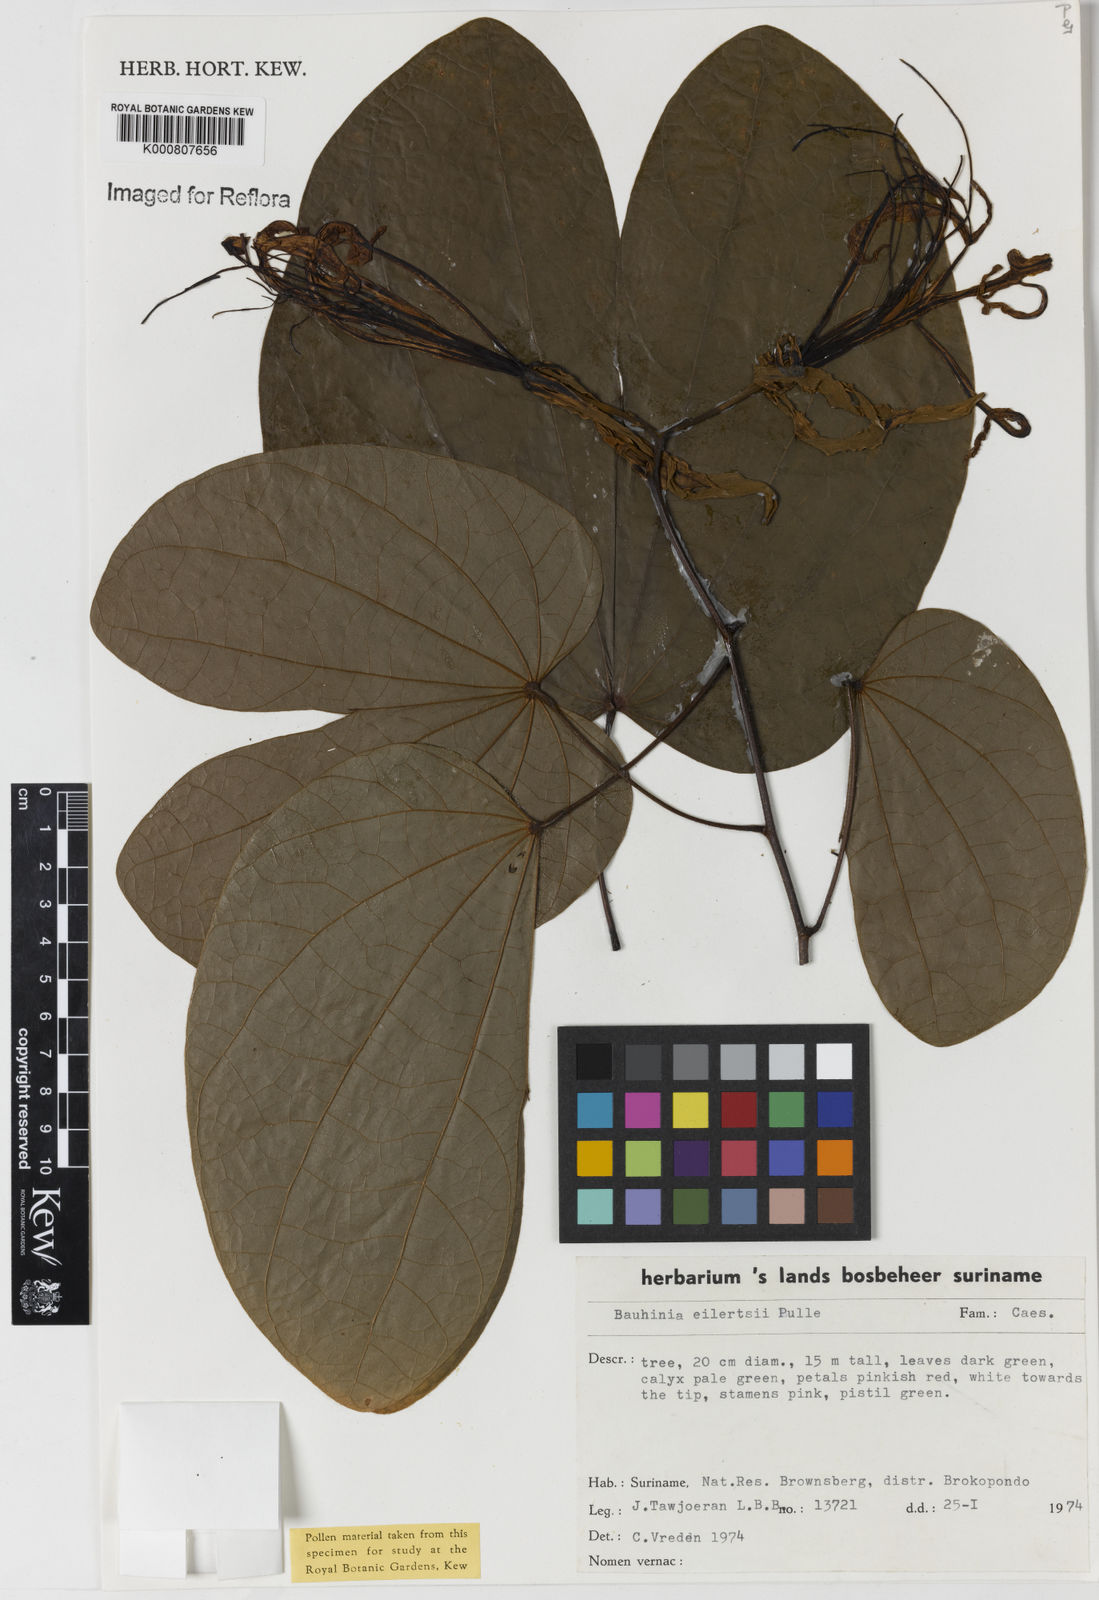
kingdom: Plantae
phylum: Tracheophyta
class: Magnoliopsida
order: Fabales
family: Fabaceae
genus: Bauhinia
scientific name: Bauhinia eilertsii
